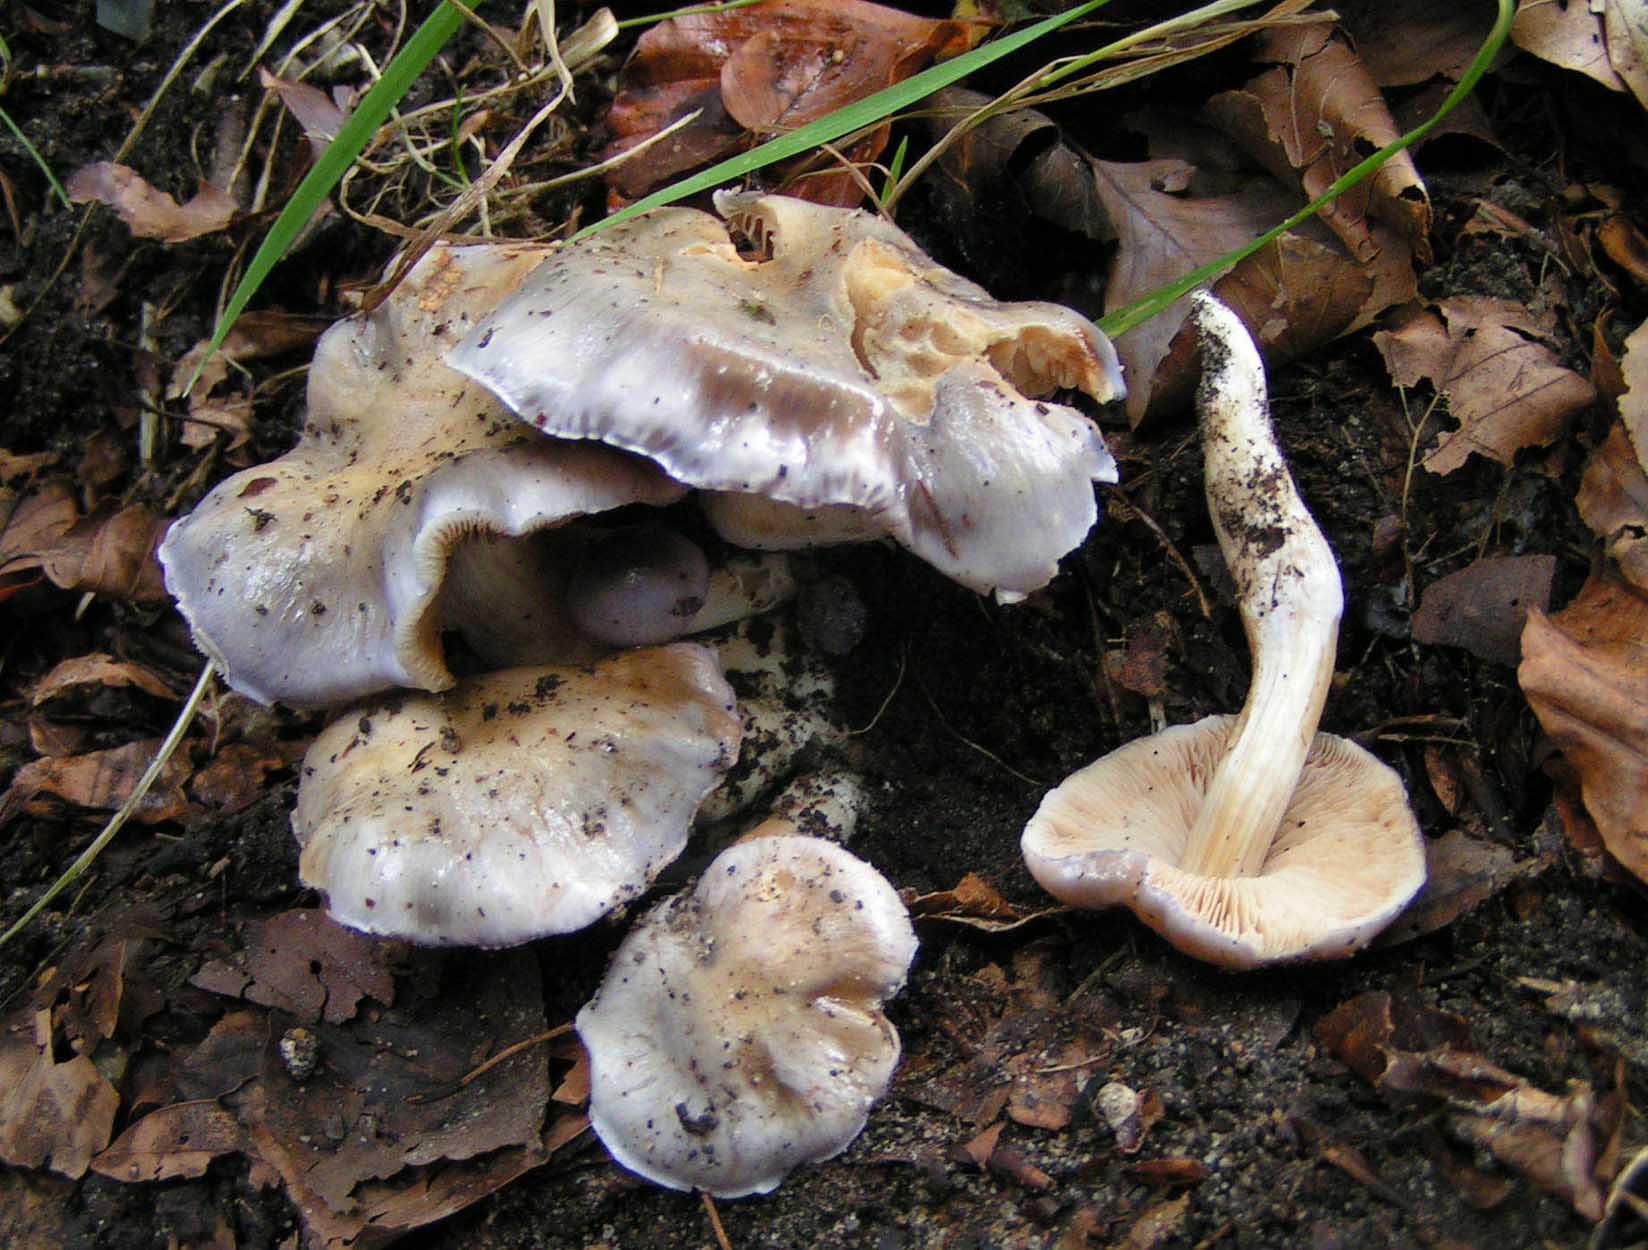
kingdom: Fungi
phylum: Basidiomycota
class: Agaricomycetes
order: Agaricales
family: Cortinariaceae
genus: Thaxterogaster
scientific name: Thaxterogaster croceocoeruleus
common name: blågullig slørhat
